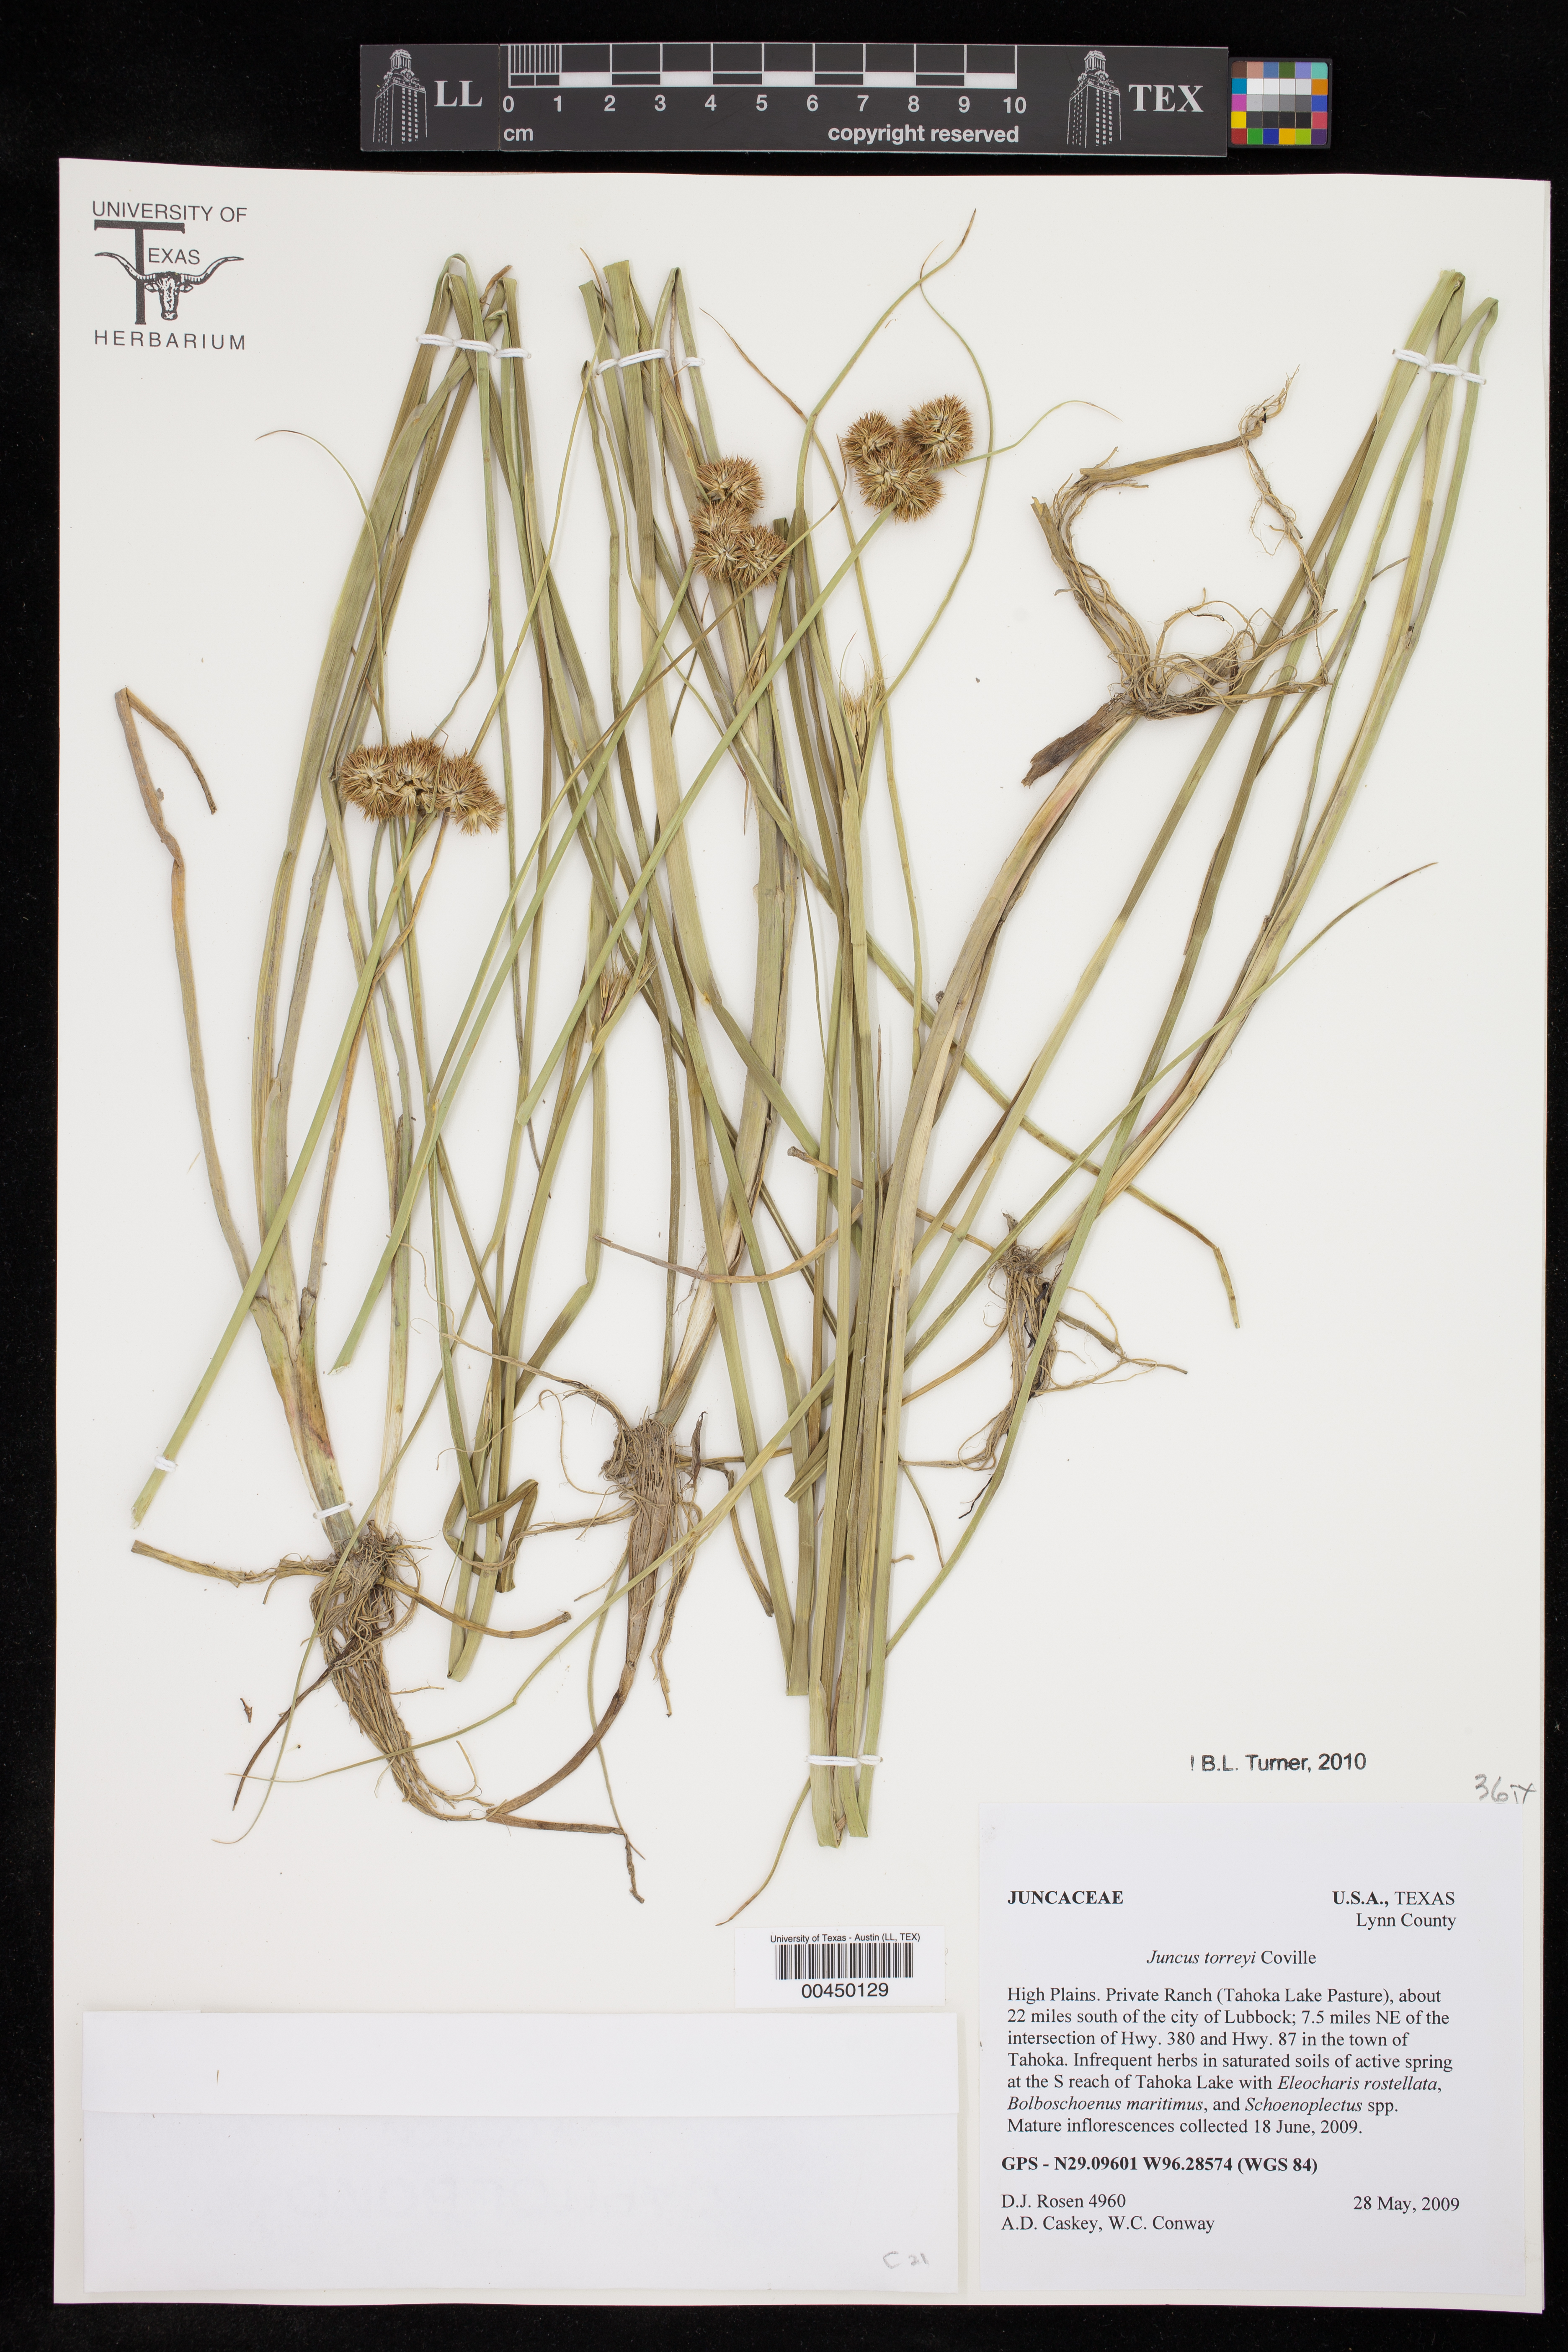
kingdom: Plantae
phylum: Tracheophyta
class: Liliopsida
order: Poales
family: Juncaceae
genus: Juncus
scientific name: Juncus torreyi
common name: Torrey's rush
